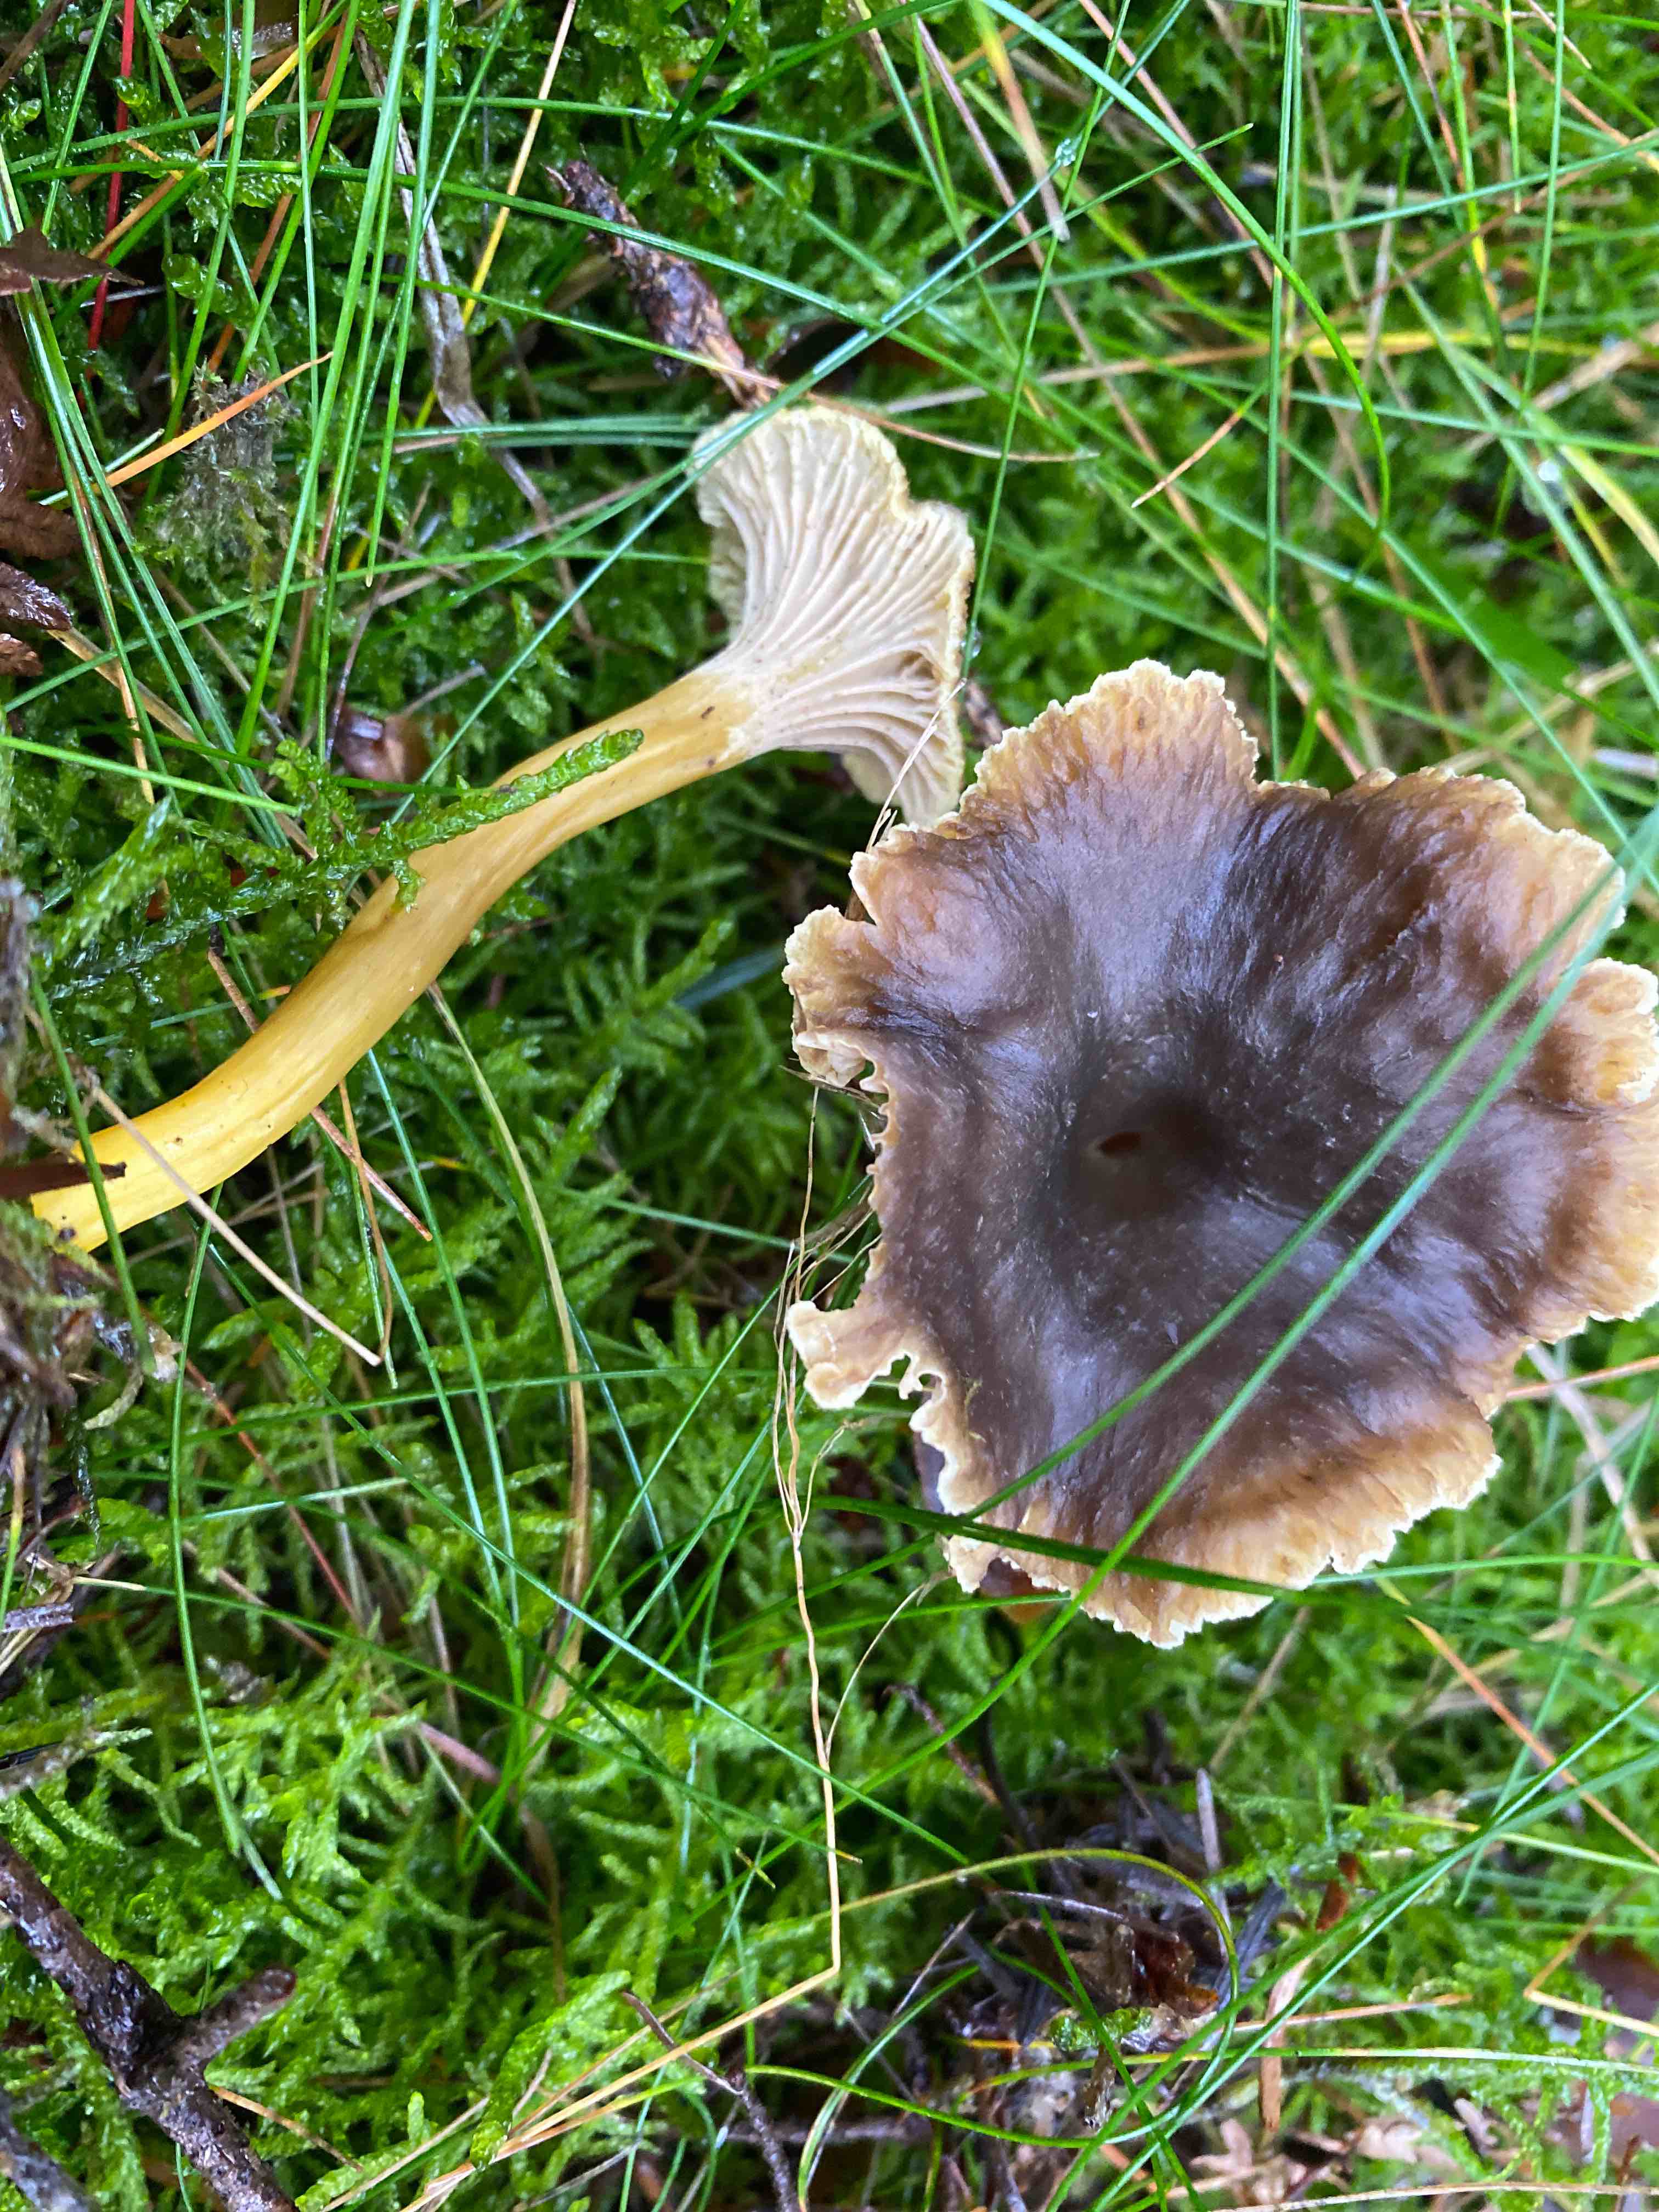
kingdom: Fungi
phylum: Basidiomycota
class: Agaricomycetes
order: Cantharellales
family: Hydnaceae
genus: Craterellus
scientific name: Craterellus tubaeformis
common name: tragt-kantarel
